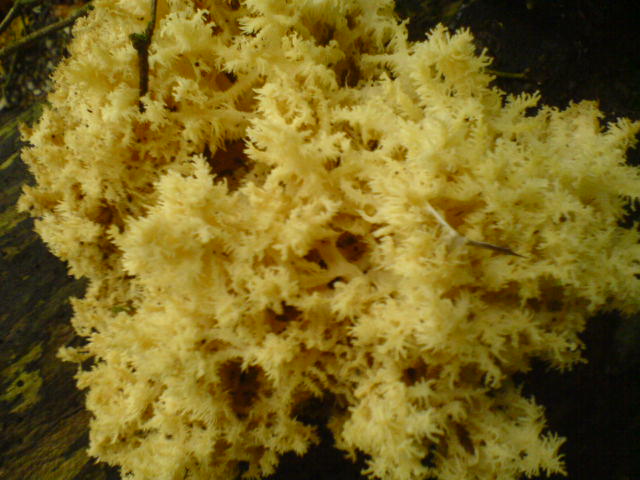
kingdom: Fungi
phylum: Basidiomycota
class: Agaricomycetes
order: Russulales
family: Hericiaceae
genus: Hericium
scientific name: Hericium coralloides
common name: koralpigsvamp
